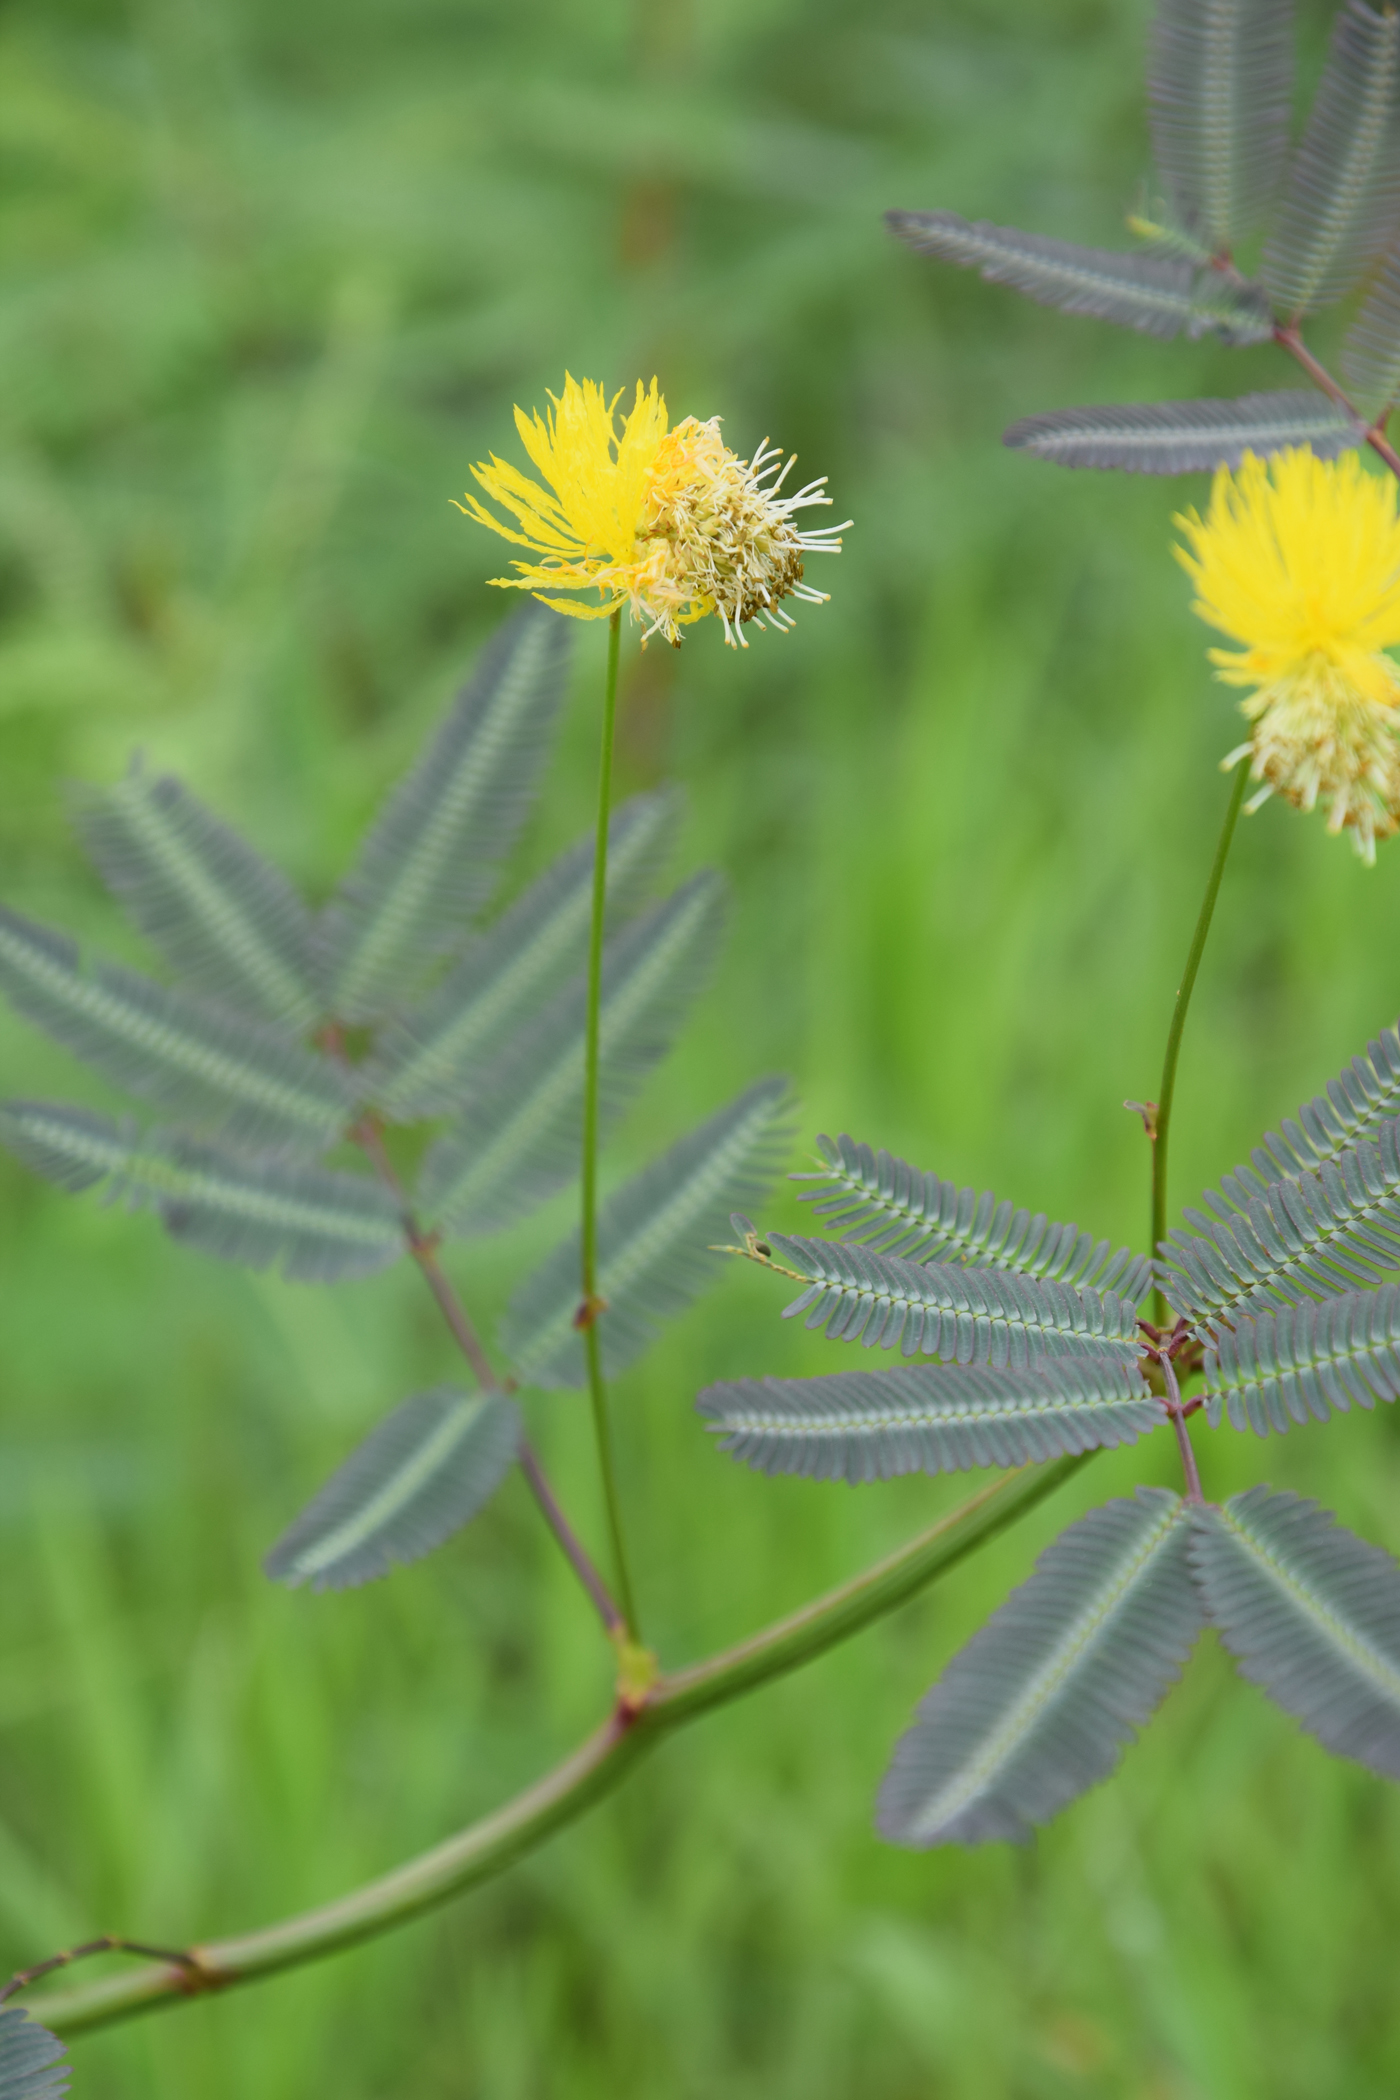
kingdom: Plantae
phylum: Tracheophyta
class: Magnoliopsida
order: Fabales
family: Fabaceae
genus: Neptunia
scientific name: Neptunia javanica
